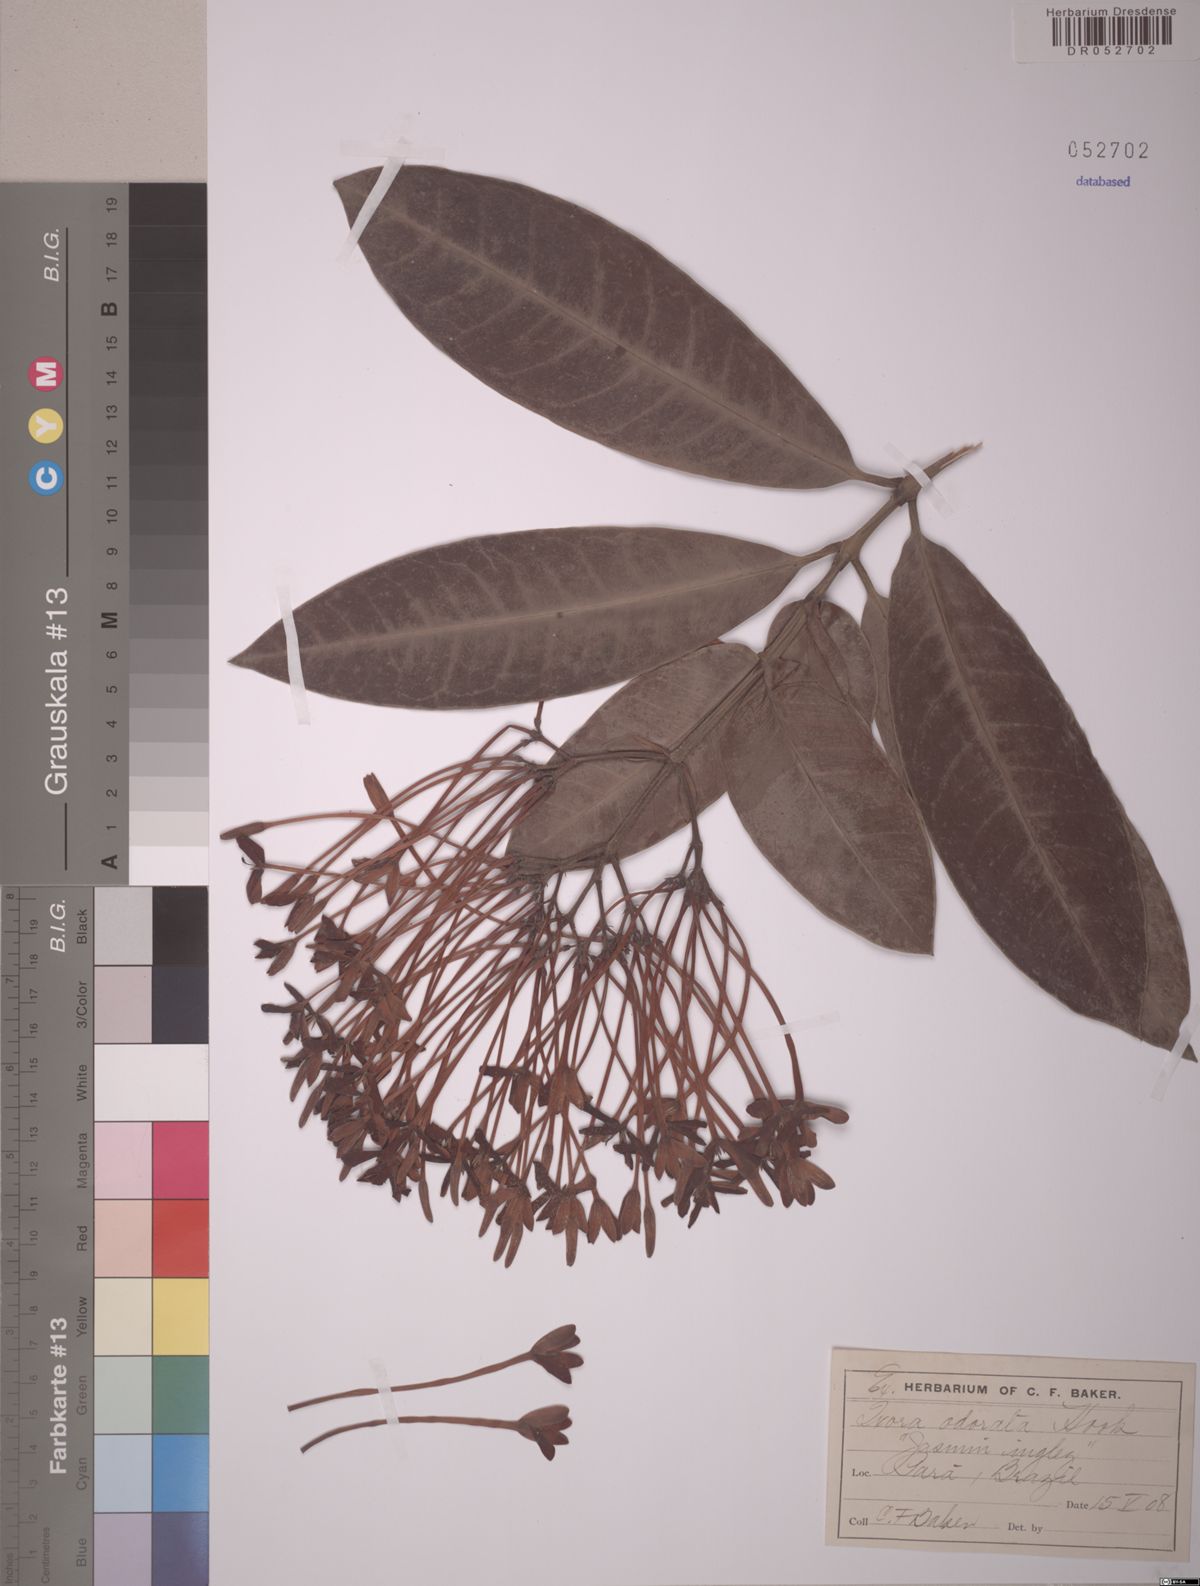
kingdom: Plantae
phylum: Tracheophyta
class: Magnoliopsida
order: Gentianales
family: Rubiaceae
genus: Ixora
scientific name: Ixora hookeri
